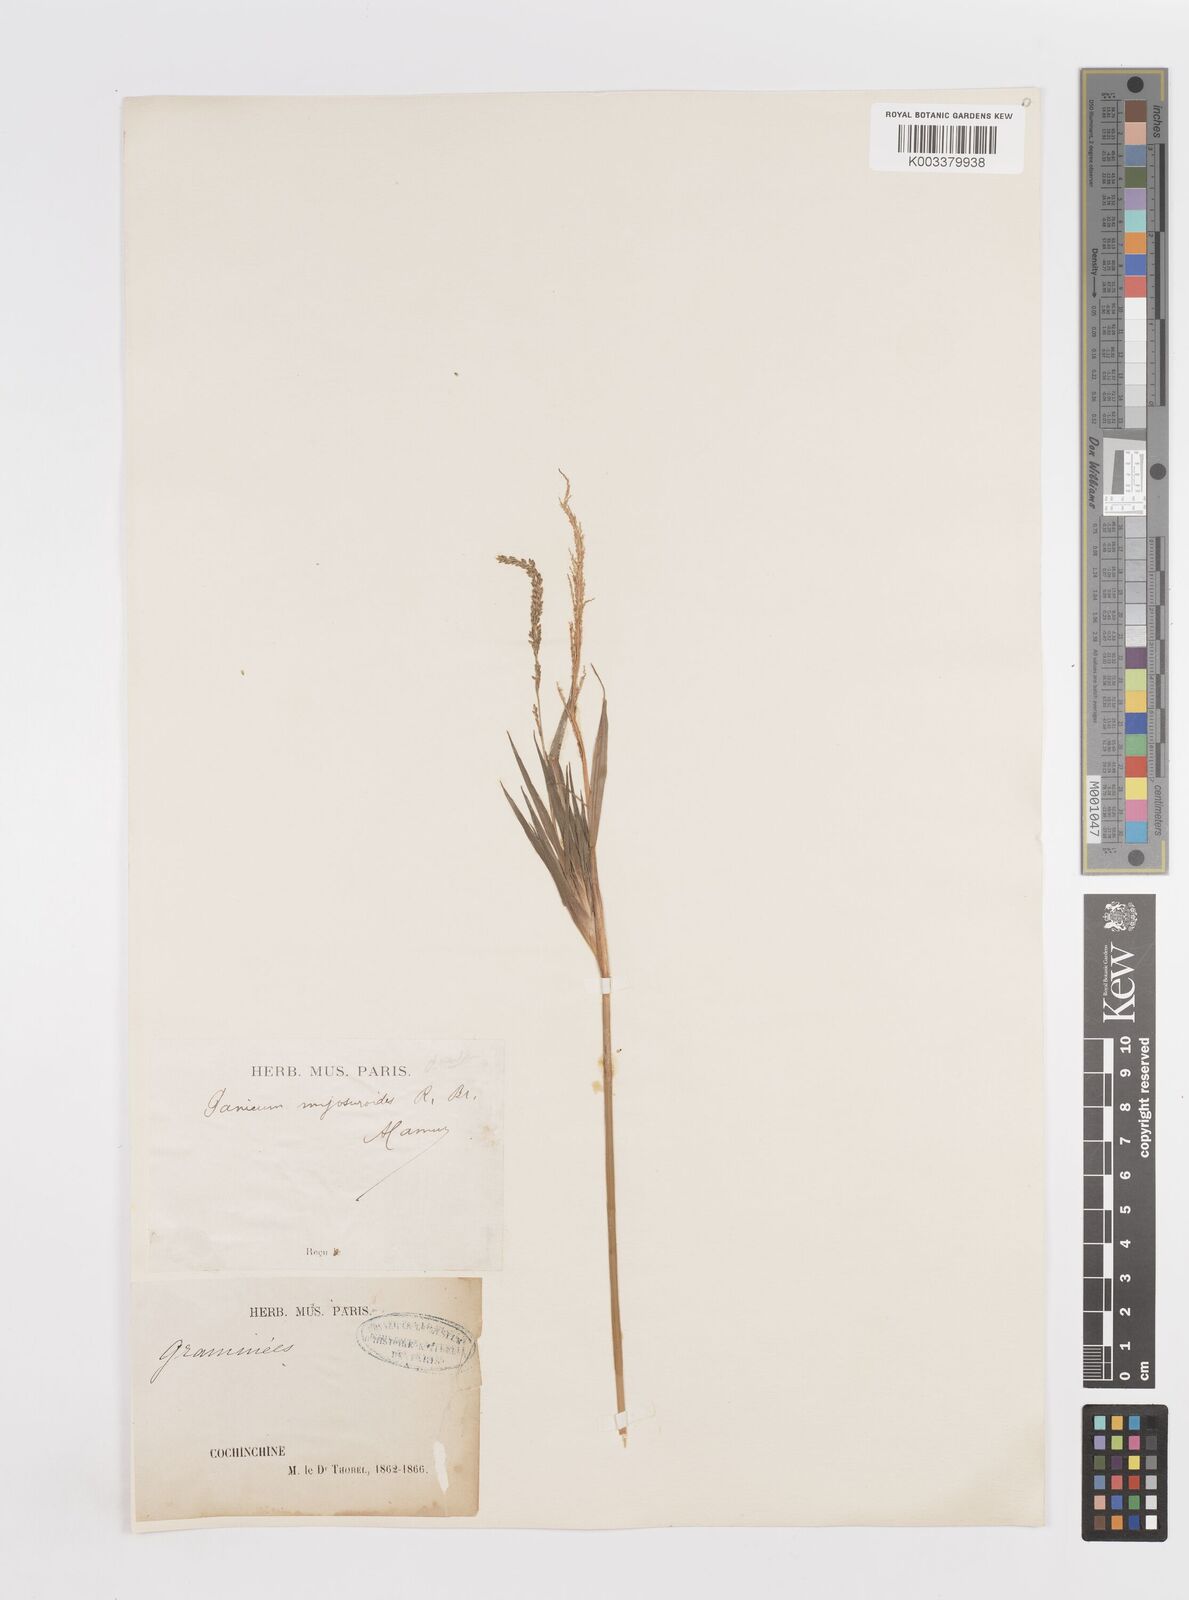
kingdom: Plantae
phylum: Tracheophyta
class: Liliopsida
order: Poales
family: Poaceae
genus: Sacciolepis
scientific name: Sacciolepis myosuroides
